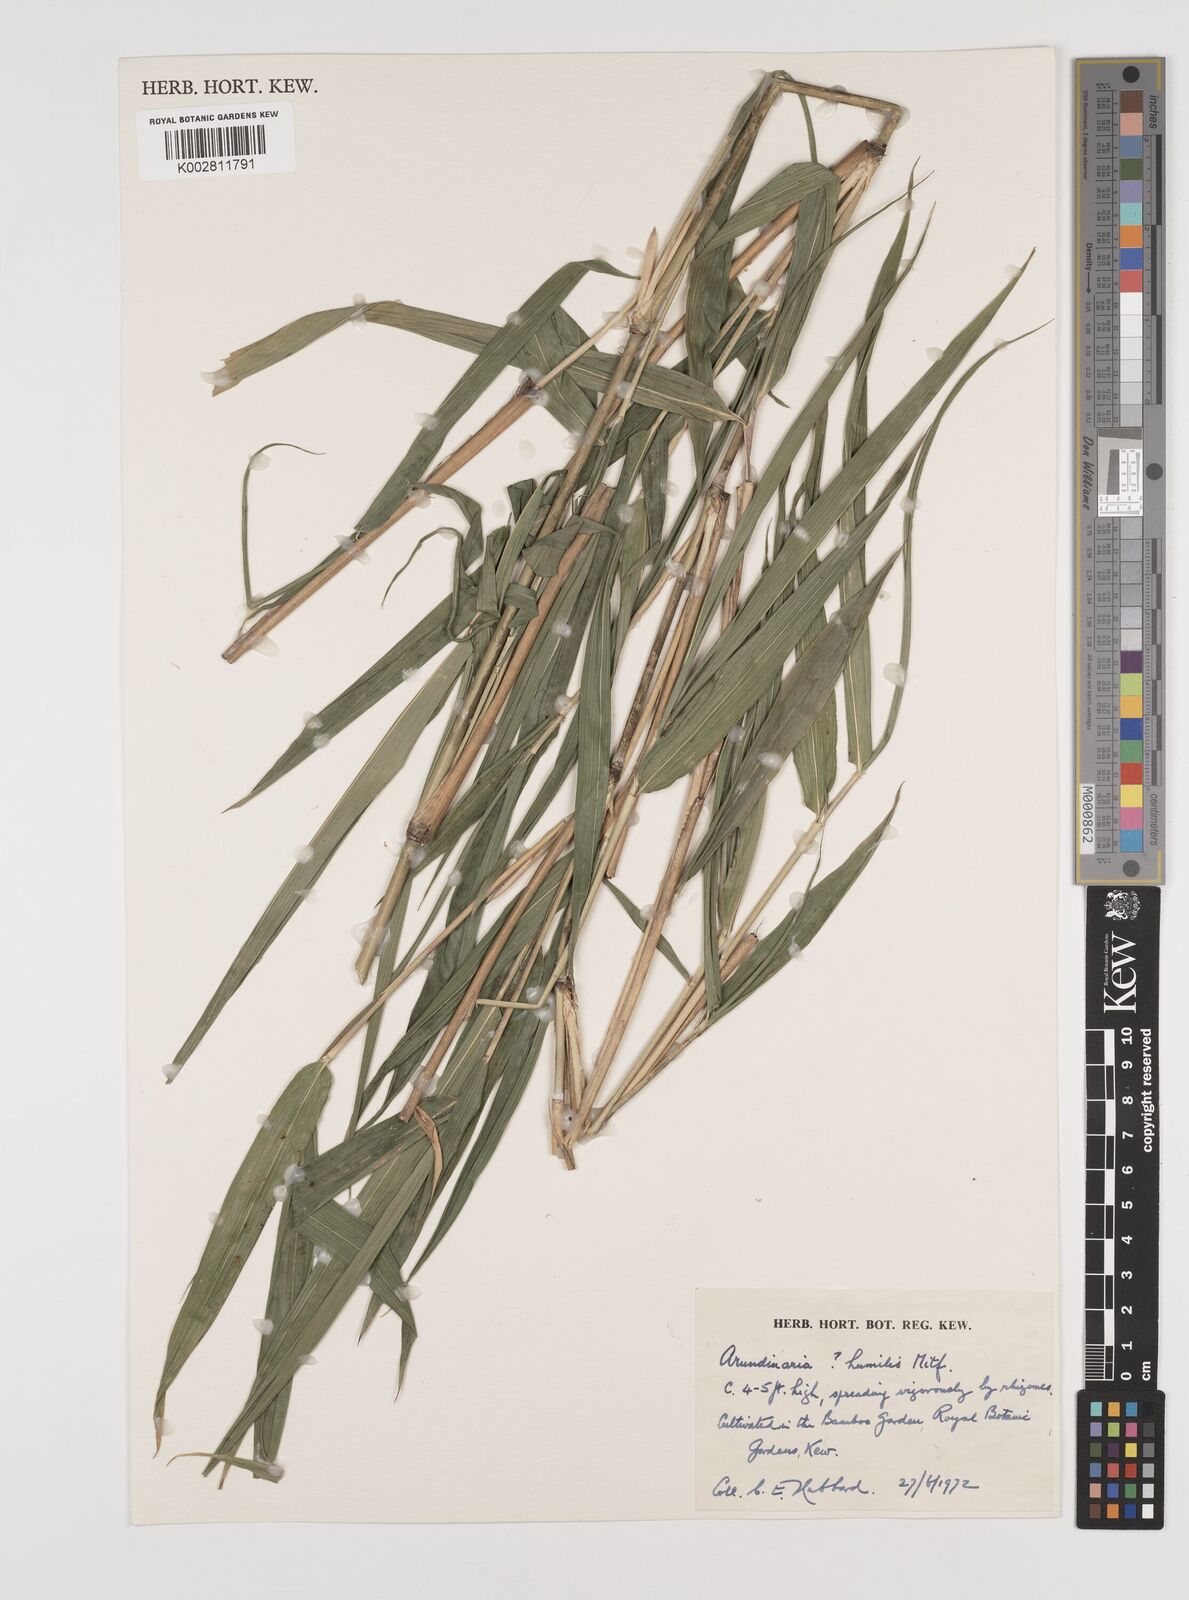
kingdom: Plantae
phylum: Tracheophyta
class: Liliopsida
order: Poales
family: Poaceae
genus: Pseudosasa
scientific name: Pseudosasa humilis
